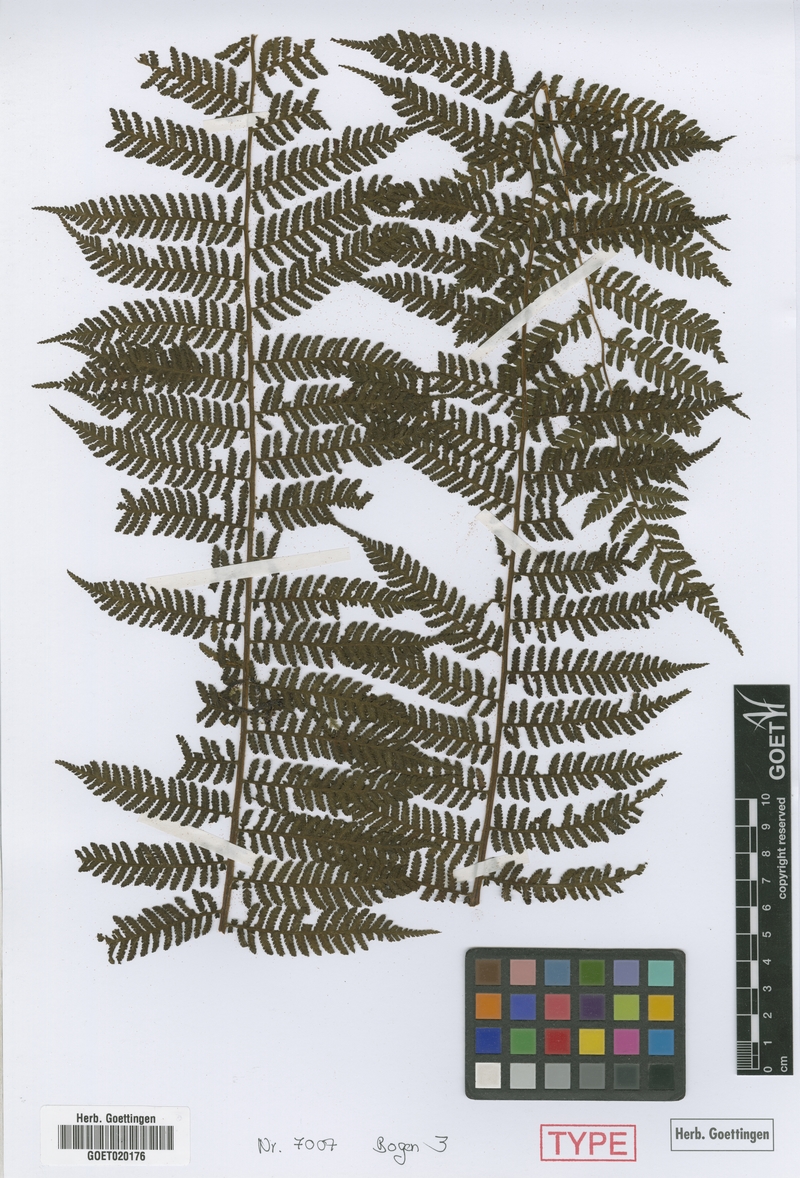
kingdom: Plantae
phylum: Tracheophyta
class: Polypodiopsida
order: Cyatheales
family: Cyatheaceae
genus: Cyathea
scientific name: Cyathea planadae
